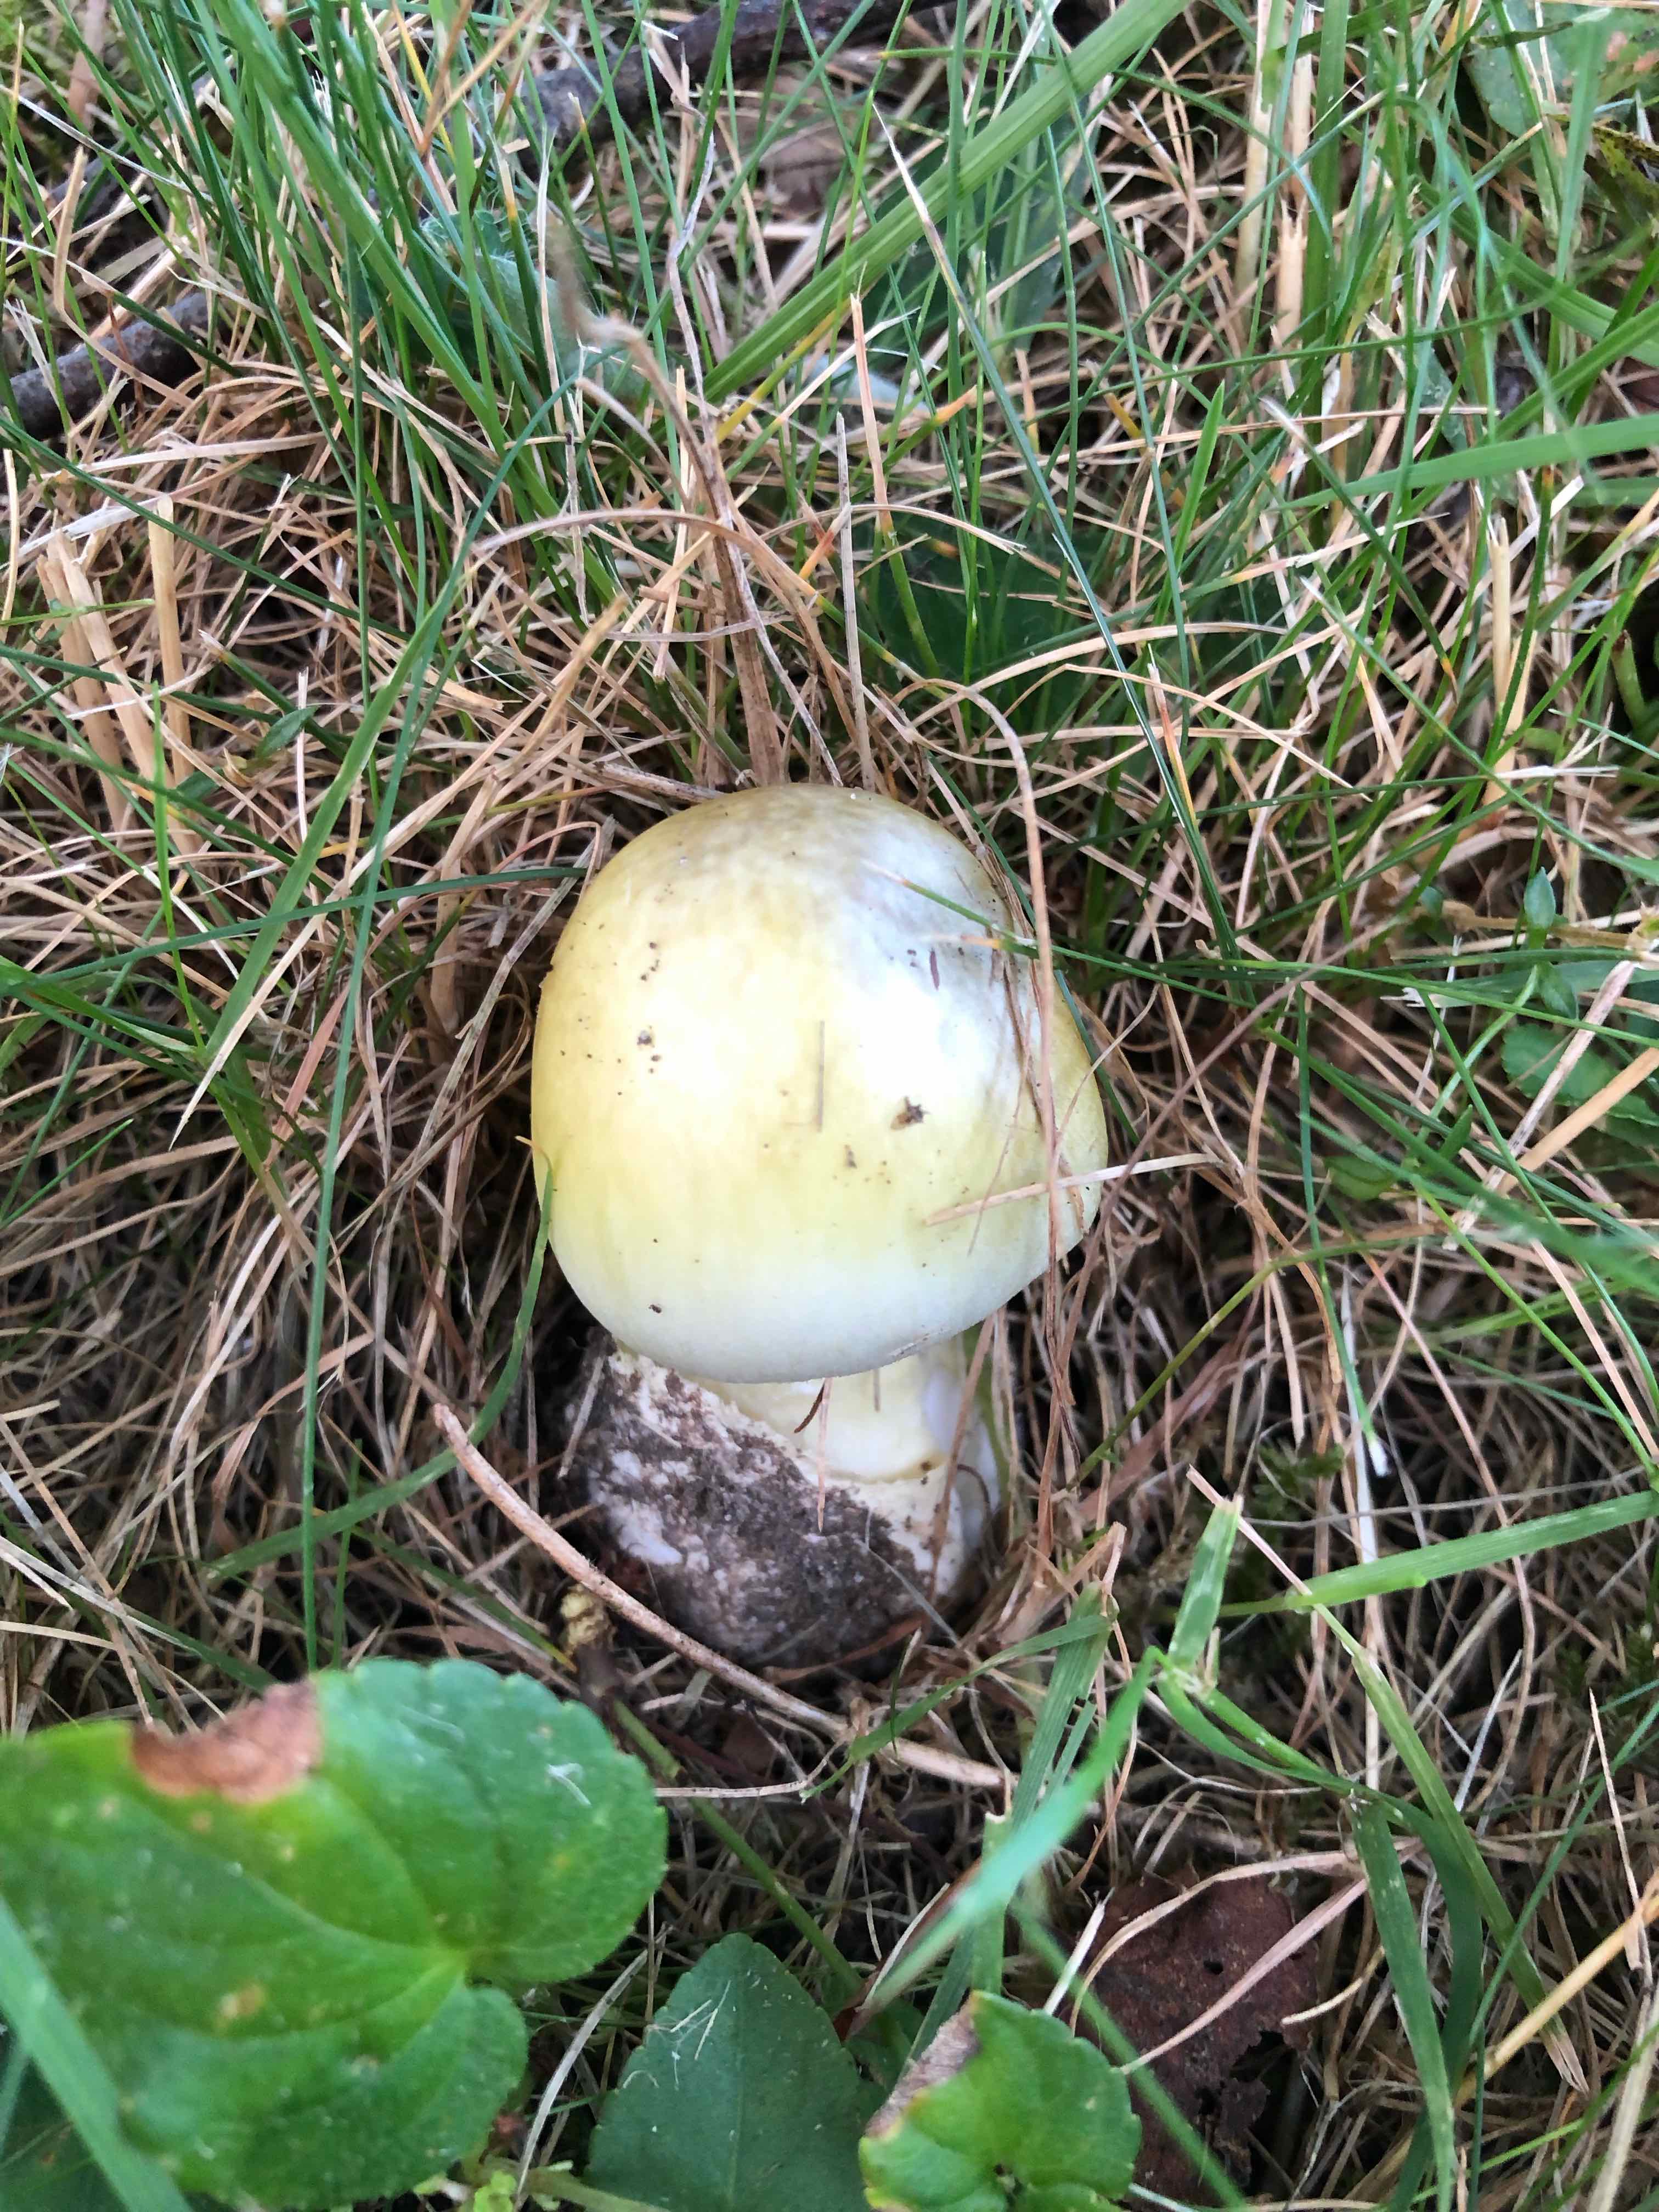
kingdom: Fungi
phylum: Basidiomycota
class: Agaricomycetes
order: Agaricales
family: Amanitaceae
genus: Amanita
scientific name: Amanita phalloides
